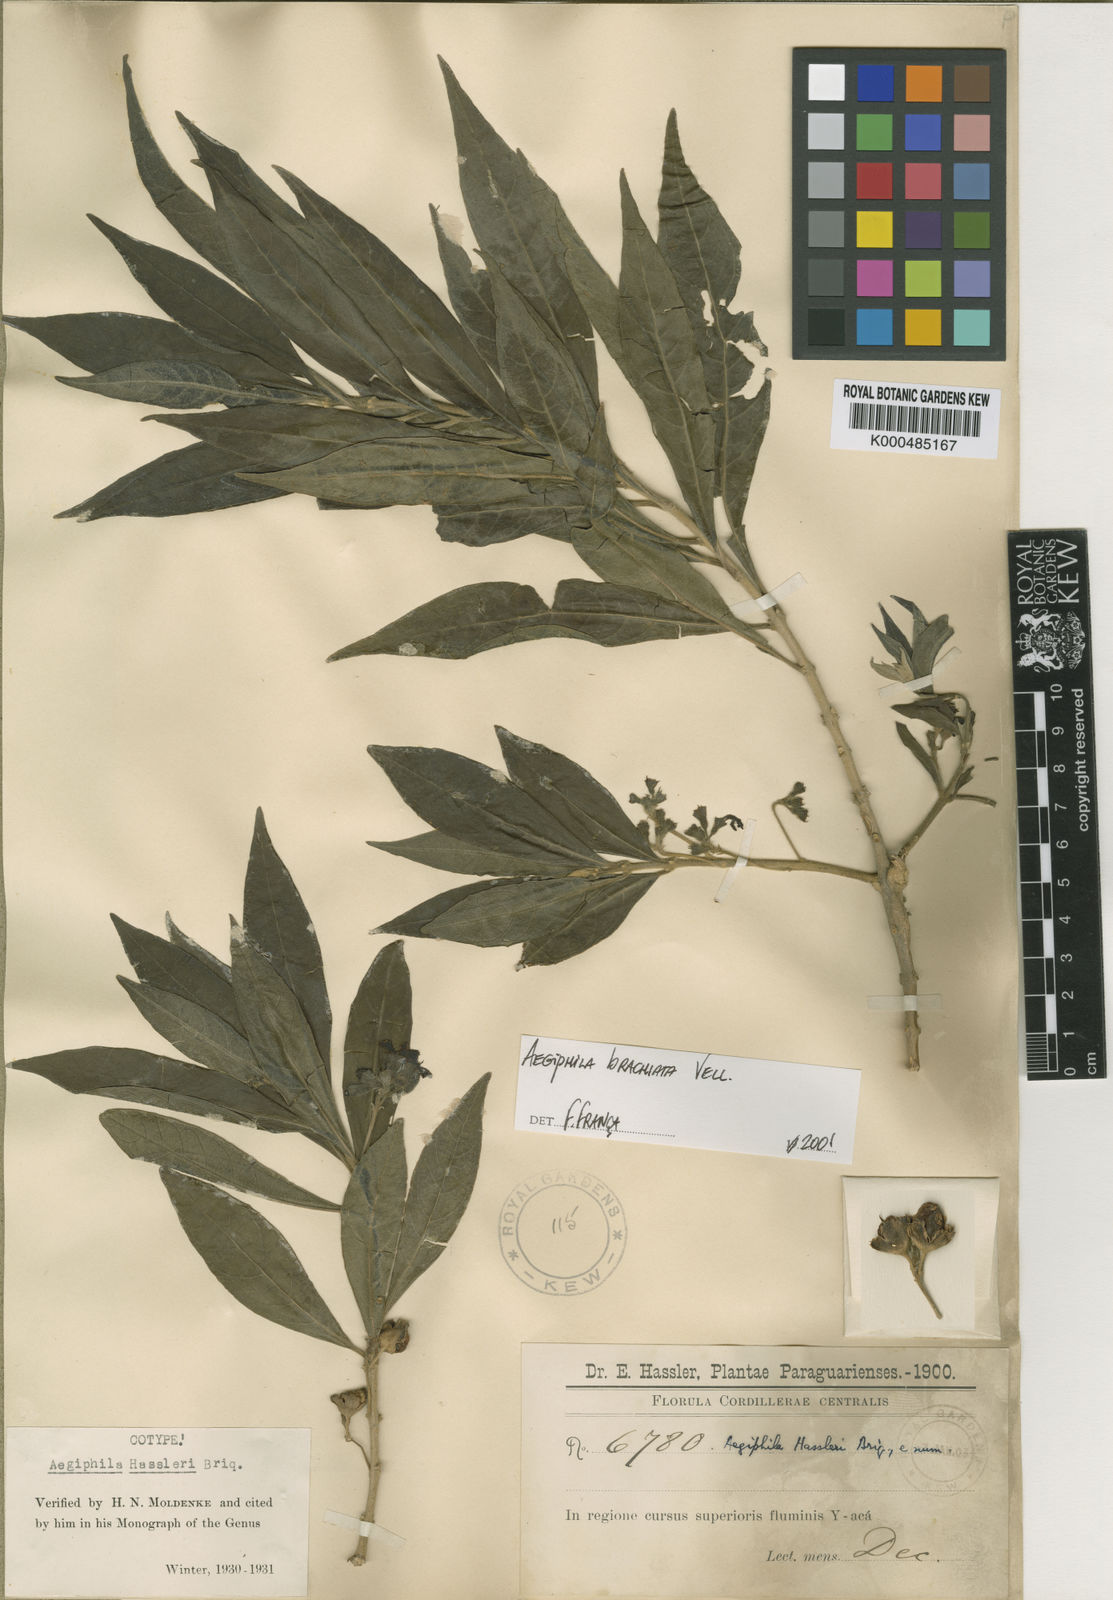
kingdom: Plantae
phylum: Tracheophyta
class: Magnoliopsida
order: Lamiales
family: Lamiaceae
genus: Aegiphila
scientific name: Aegiphila brachiata
